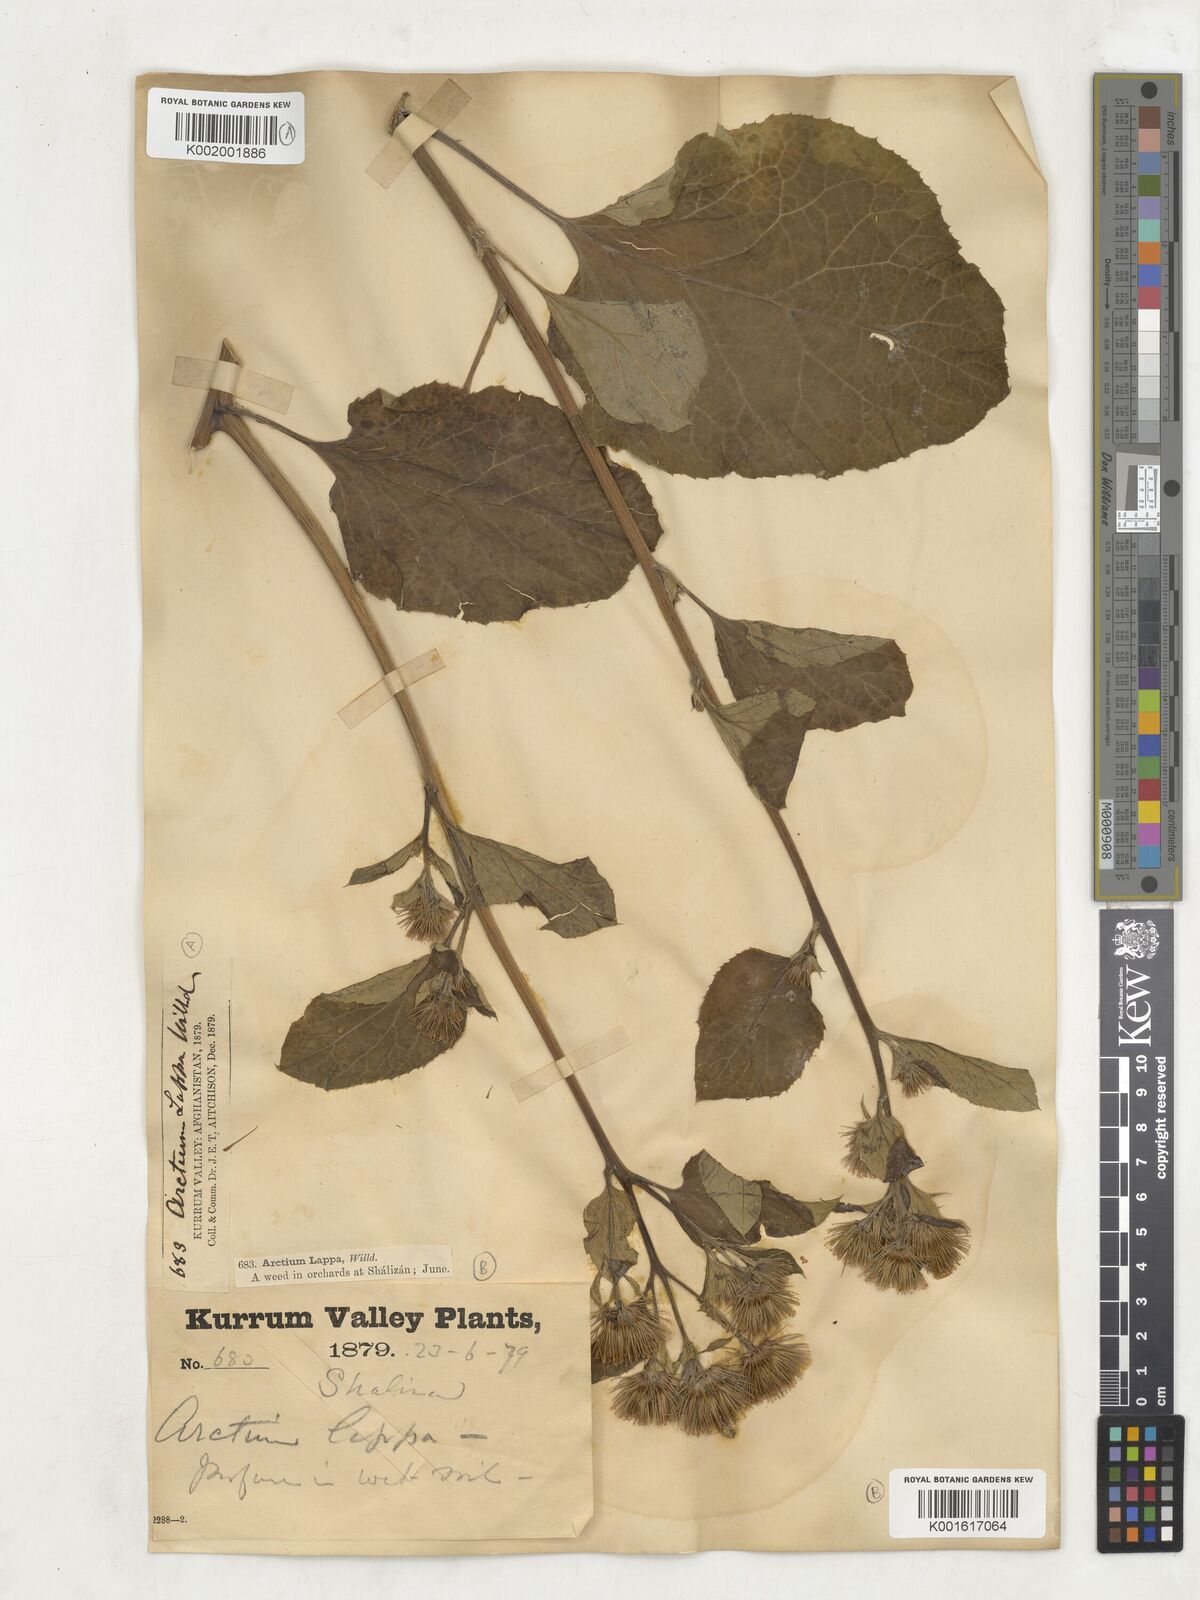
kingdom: Plantae
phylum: Tracheophyta
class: Magnoliopsida
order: Asterales
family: Asteraceae
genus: Arctium
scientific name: Arctium lappa
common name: Greater burdock
